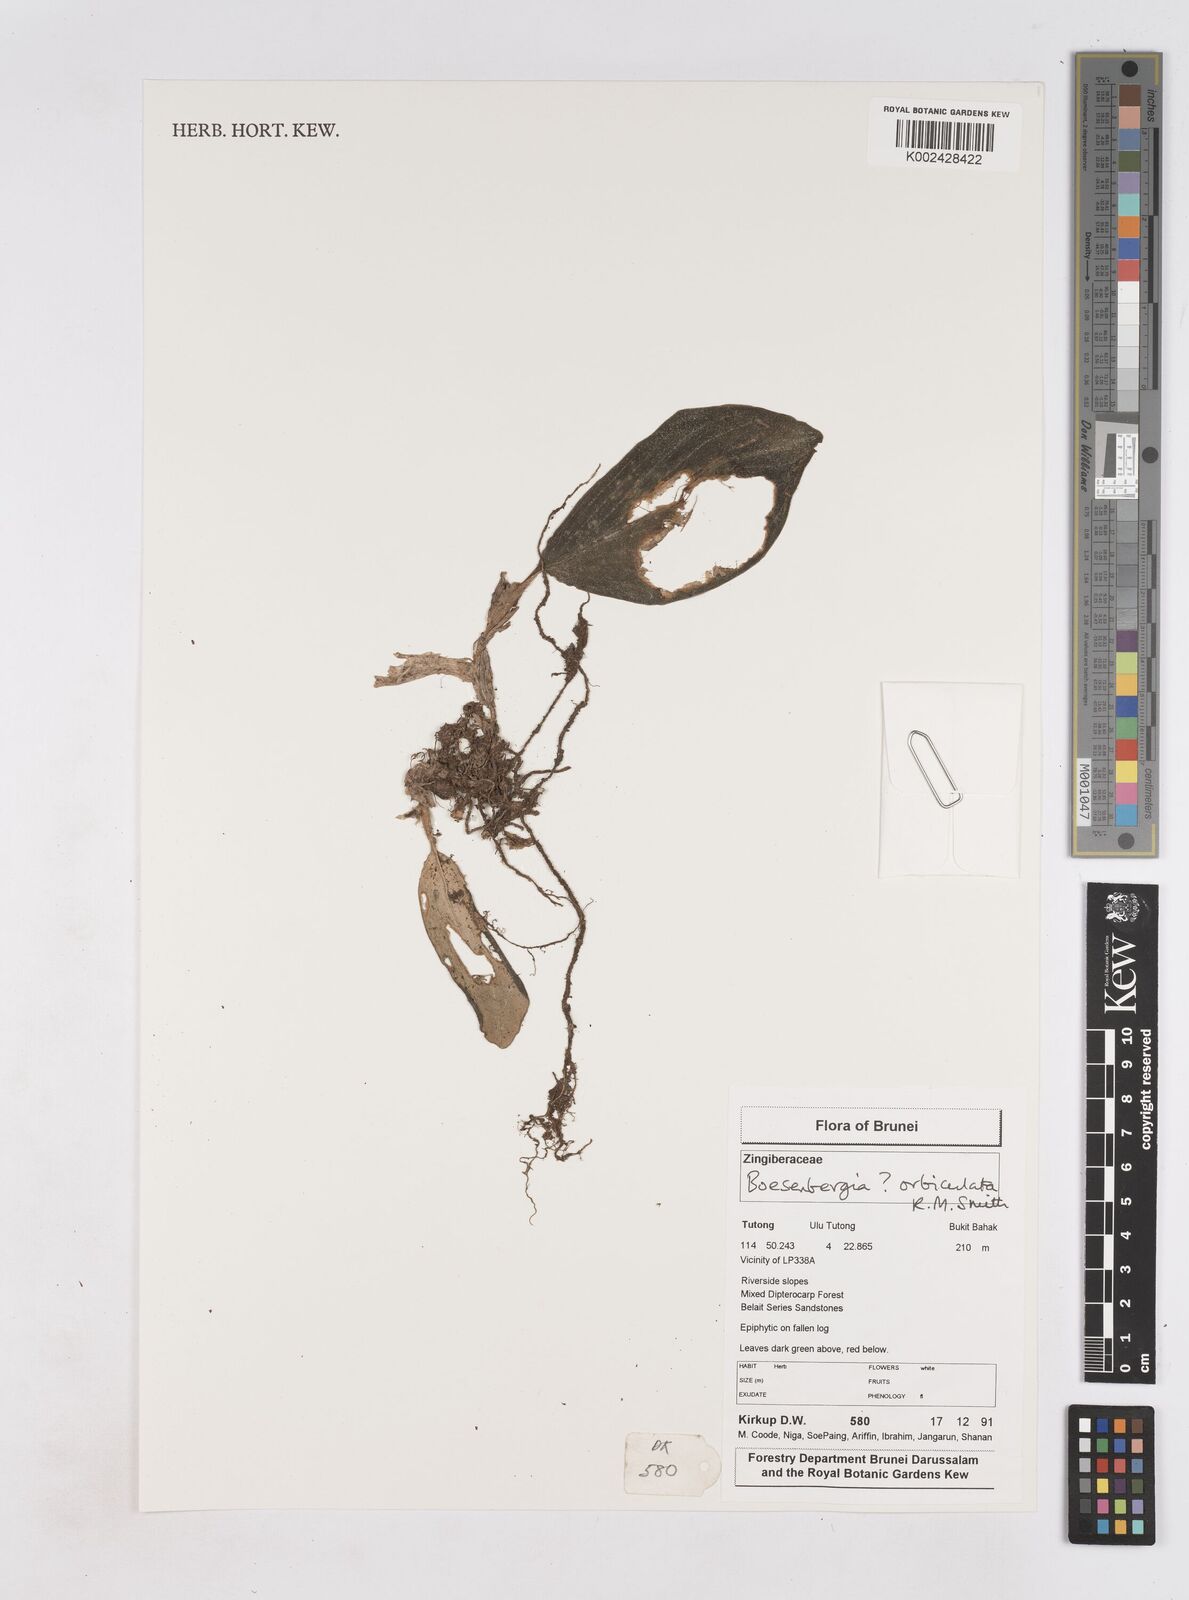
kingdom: Plantae
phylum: Tracheophyta
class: Liliopsida
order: Zingiberales
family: Zingiberaceae
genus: Boesenbergia
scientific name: Boesenbergia orbiculata
